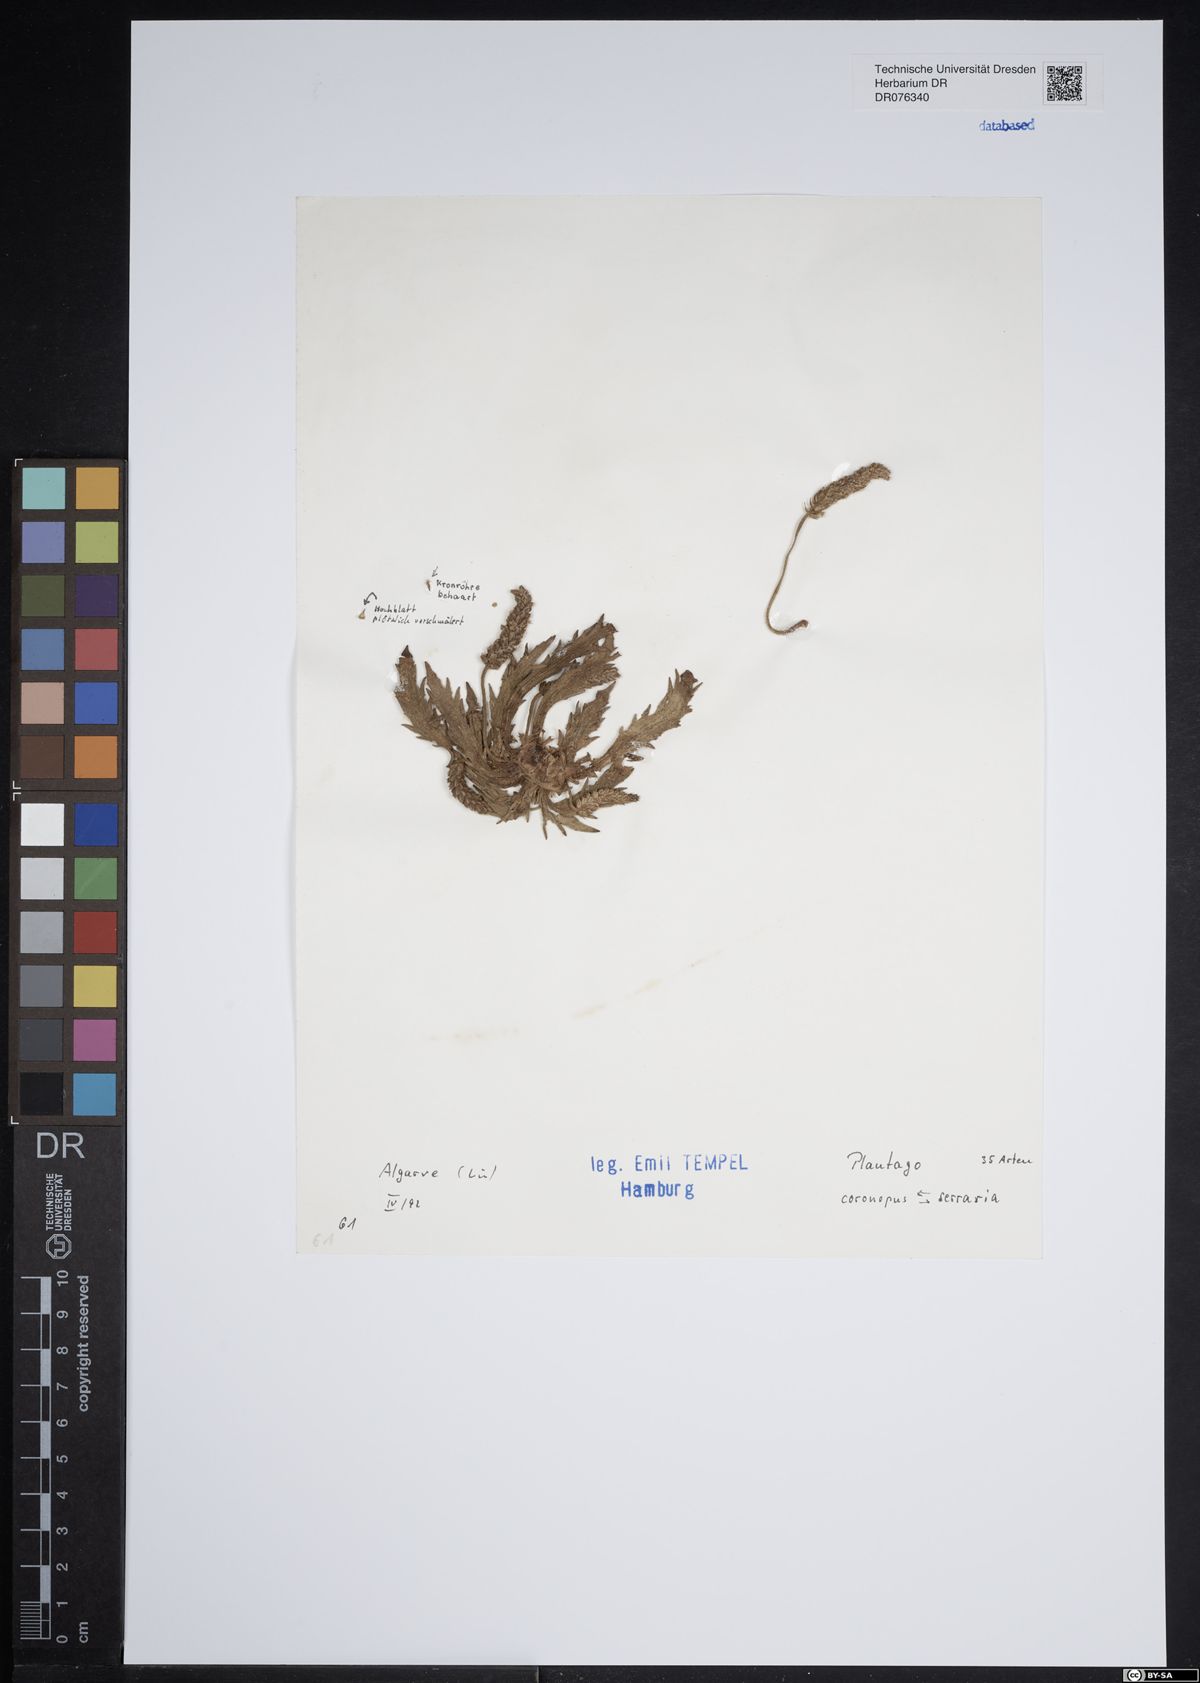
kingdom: Plantae
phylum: Tracheophyta
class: Magnoliopsida
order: Lamiales
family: Plantaginaceae
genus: Plantago
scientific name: Plantago coronopus
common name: Buck's-horn plantain
